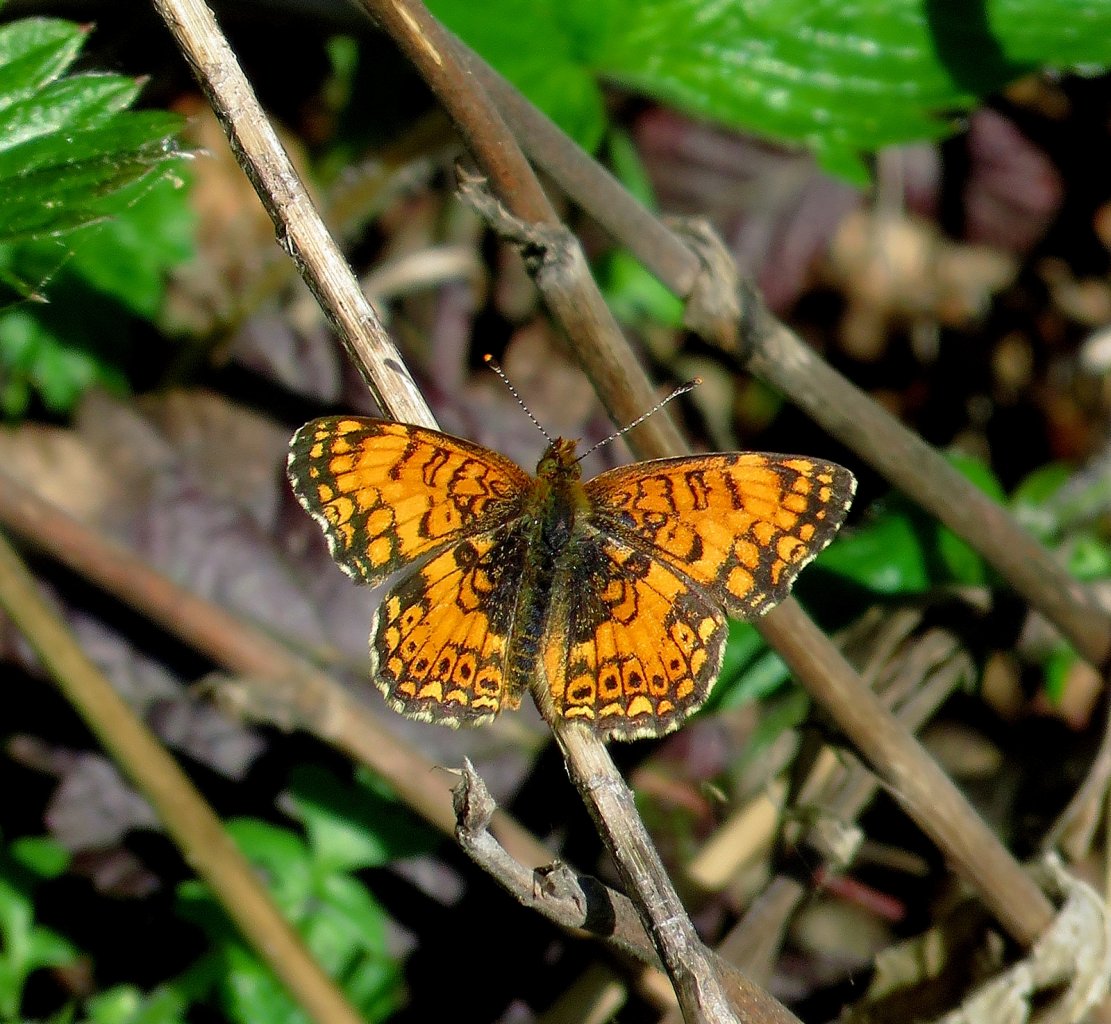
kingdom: Animalia
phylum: Arthropoda
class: Insecta
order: Lepidoptera
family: Nymphalidae
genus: Eresia
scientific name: Eresia aveyrona
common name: Mylitta Crescent
